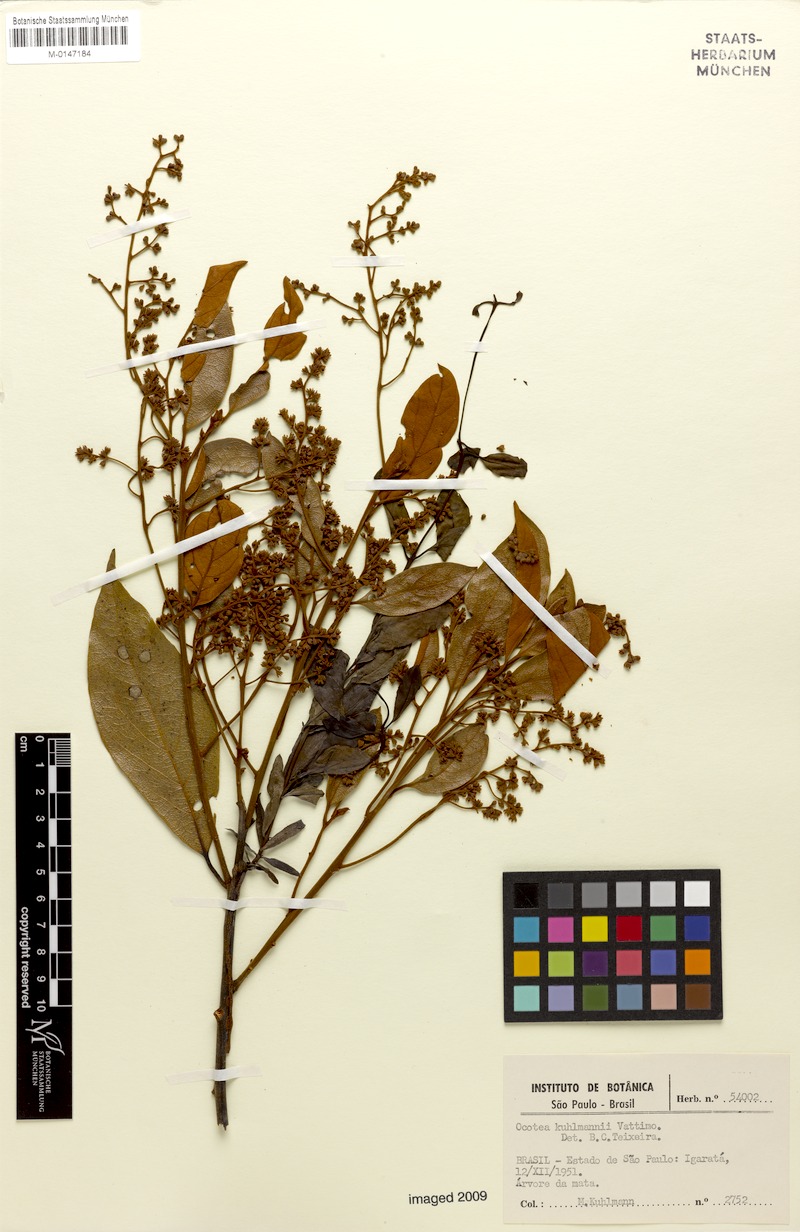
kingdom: Plantae
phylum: Tracheophyta
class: Magnoliopsida
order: Laurales
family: Lauraceae
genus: Ocotea
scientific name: Ocotea urbaniana
